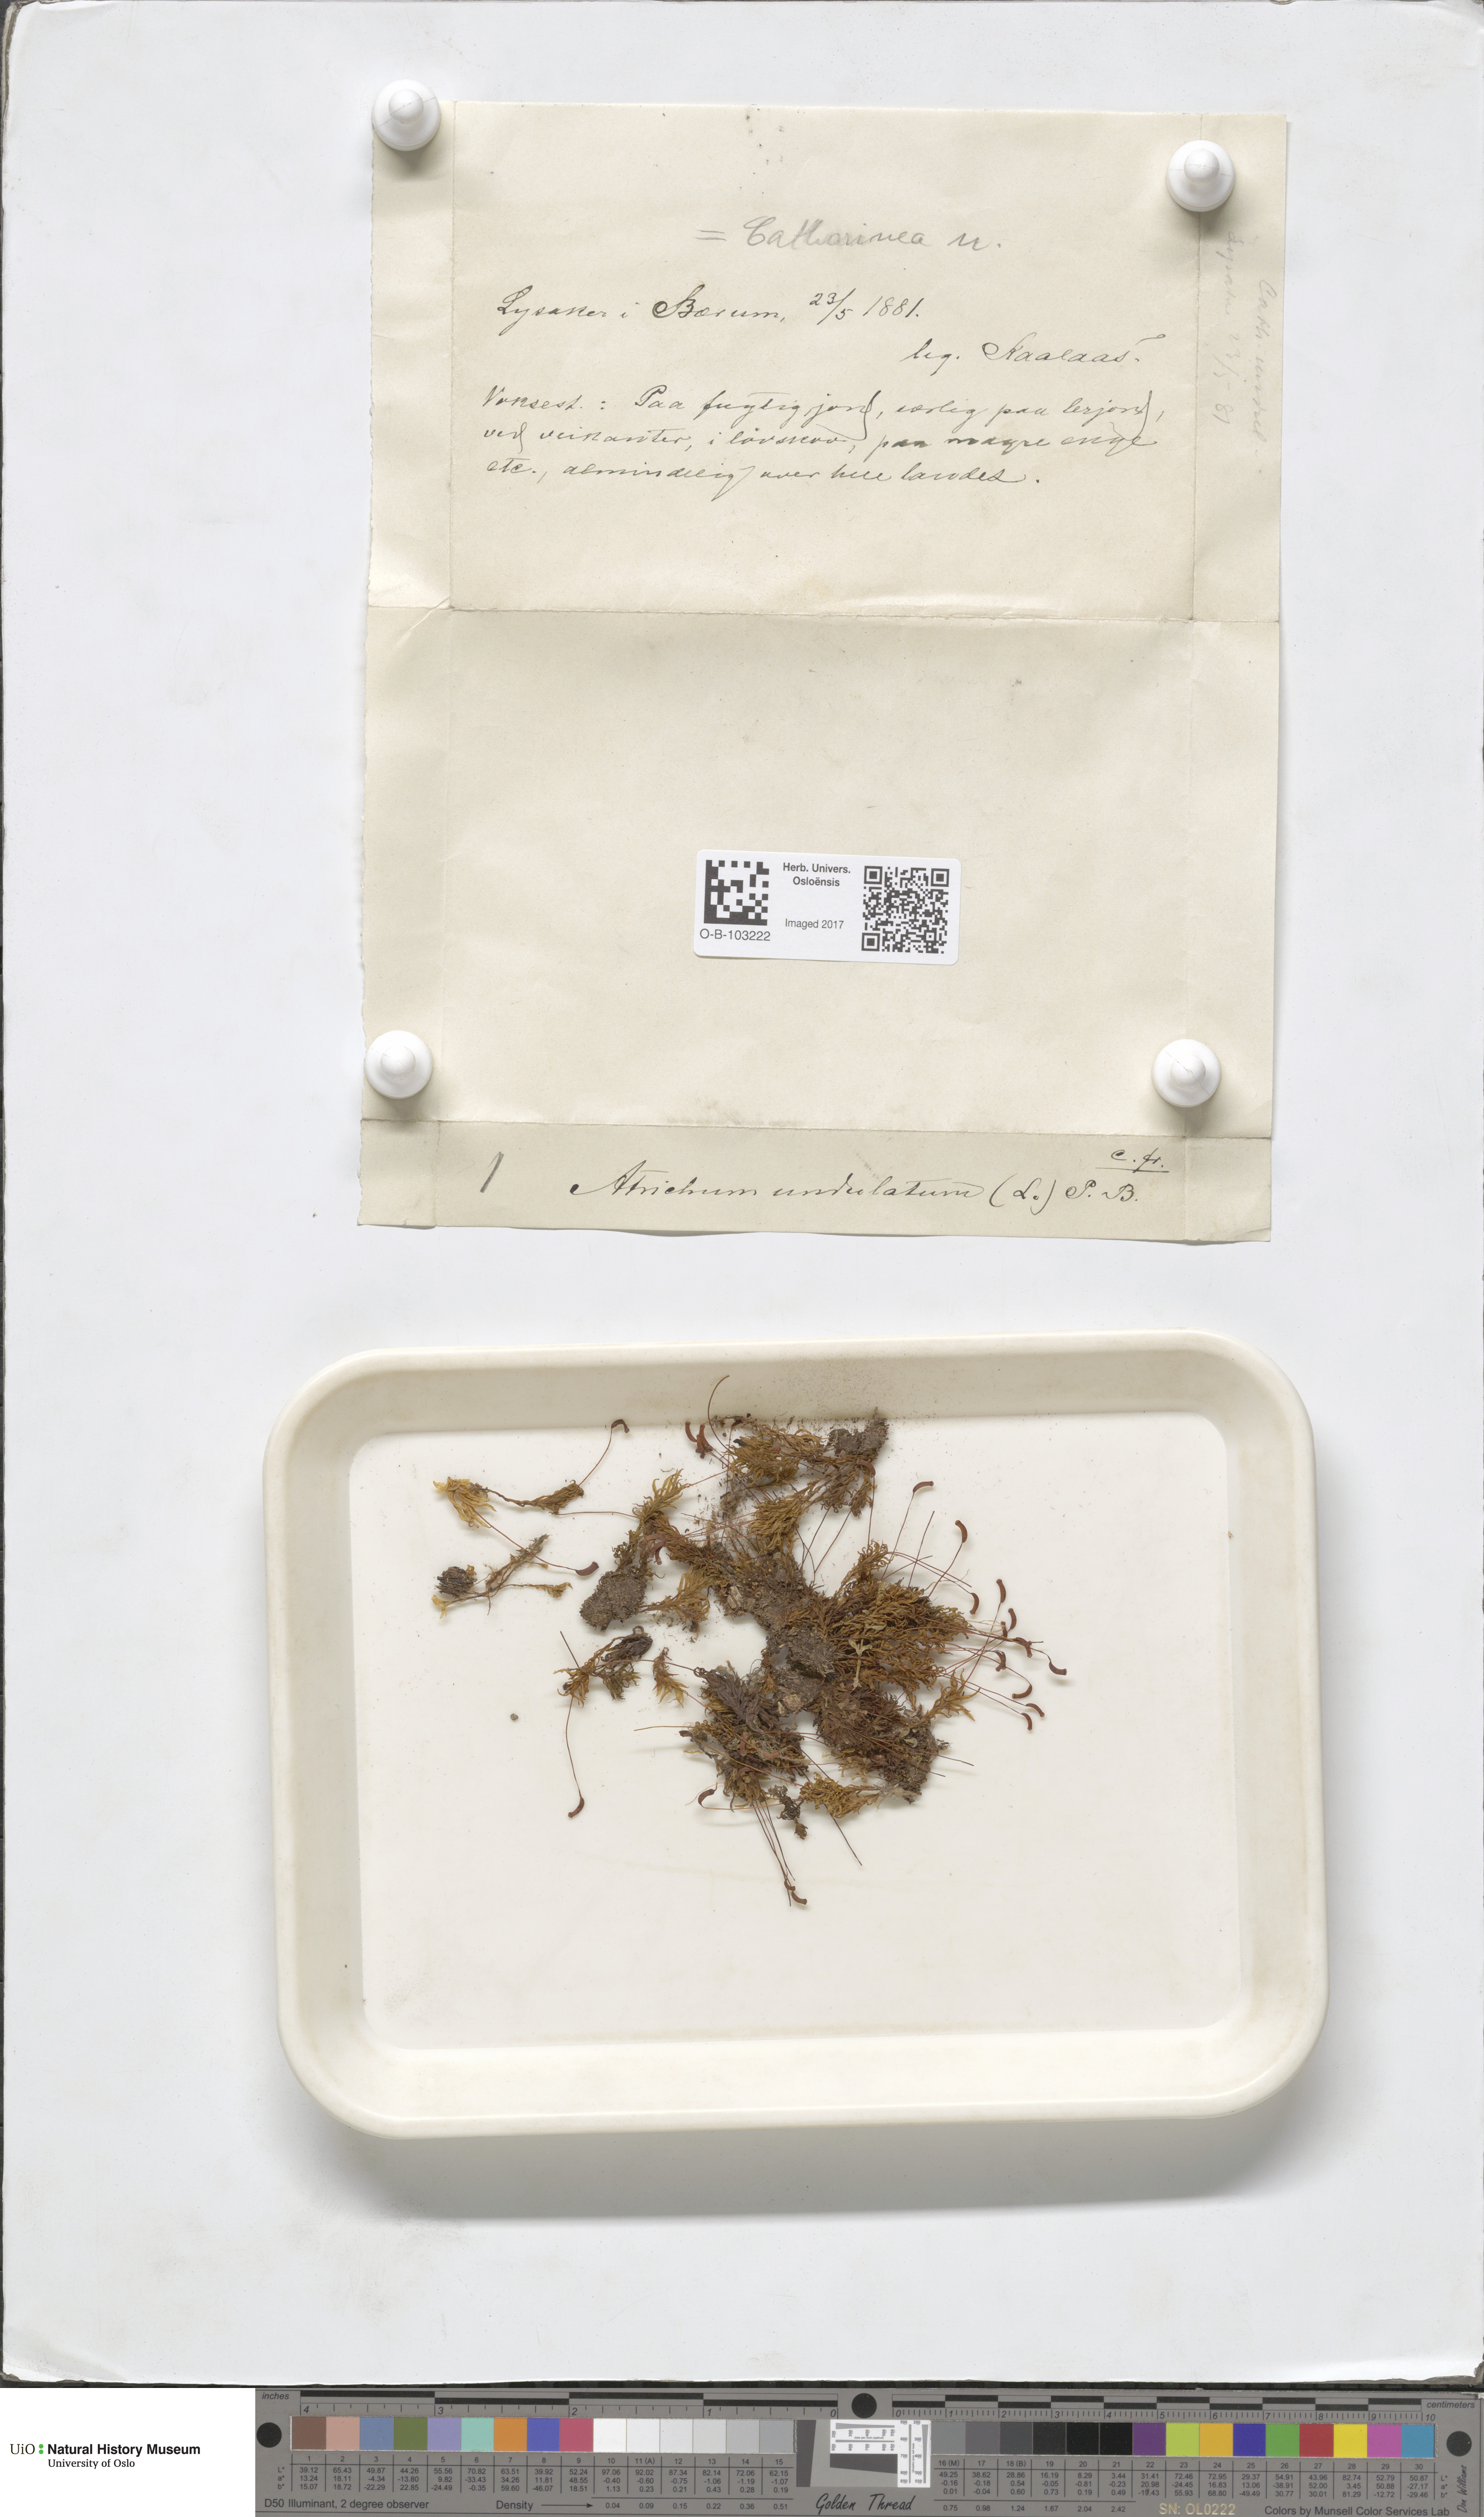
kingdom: Plantae
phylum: Bryophyta
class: Polytrichopsida
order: Polytrichales
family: Polytrichaceae
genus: Atrichum
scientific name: Atrichum undulatum
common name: Common smoothcap
